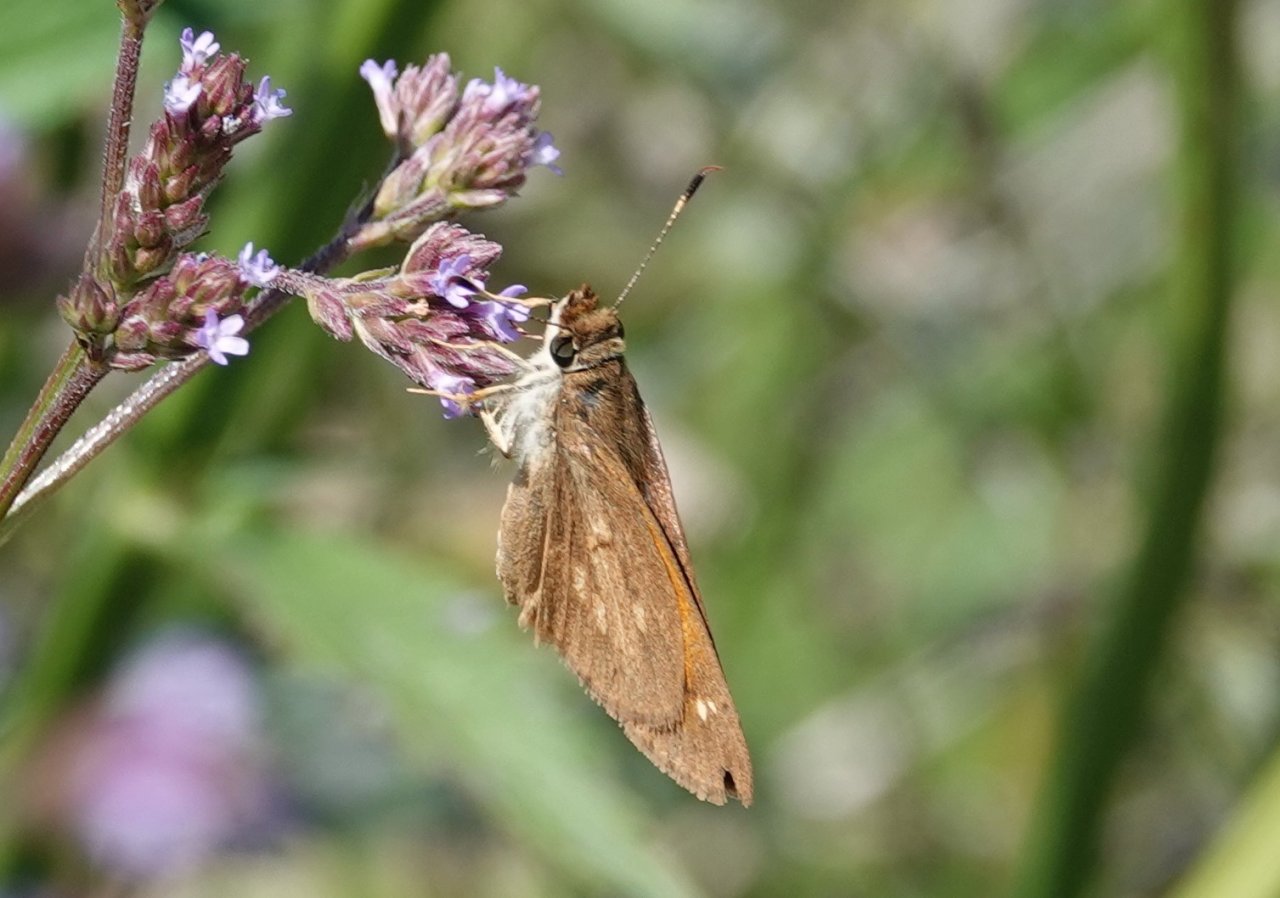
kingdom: Animalia
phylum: Arthropoda
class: Insecta
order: Lepidoptera
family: Hesperiidae
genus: Poanes
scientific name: Poanes viator
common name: Broad-winged Skipper
